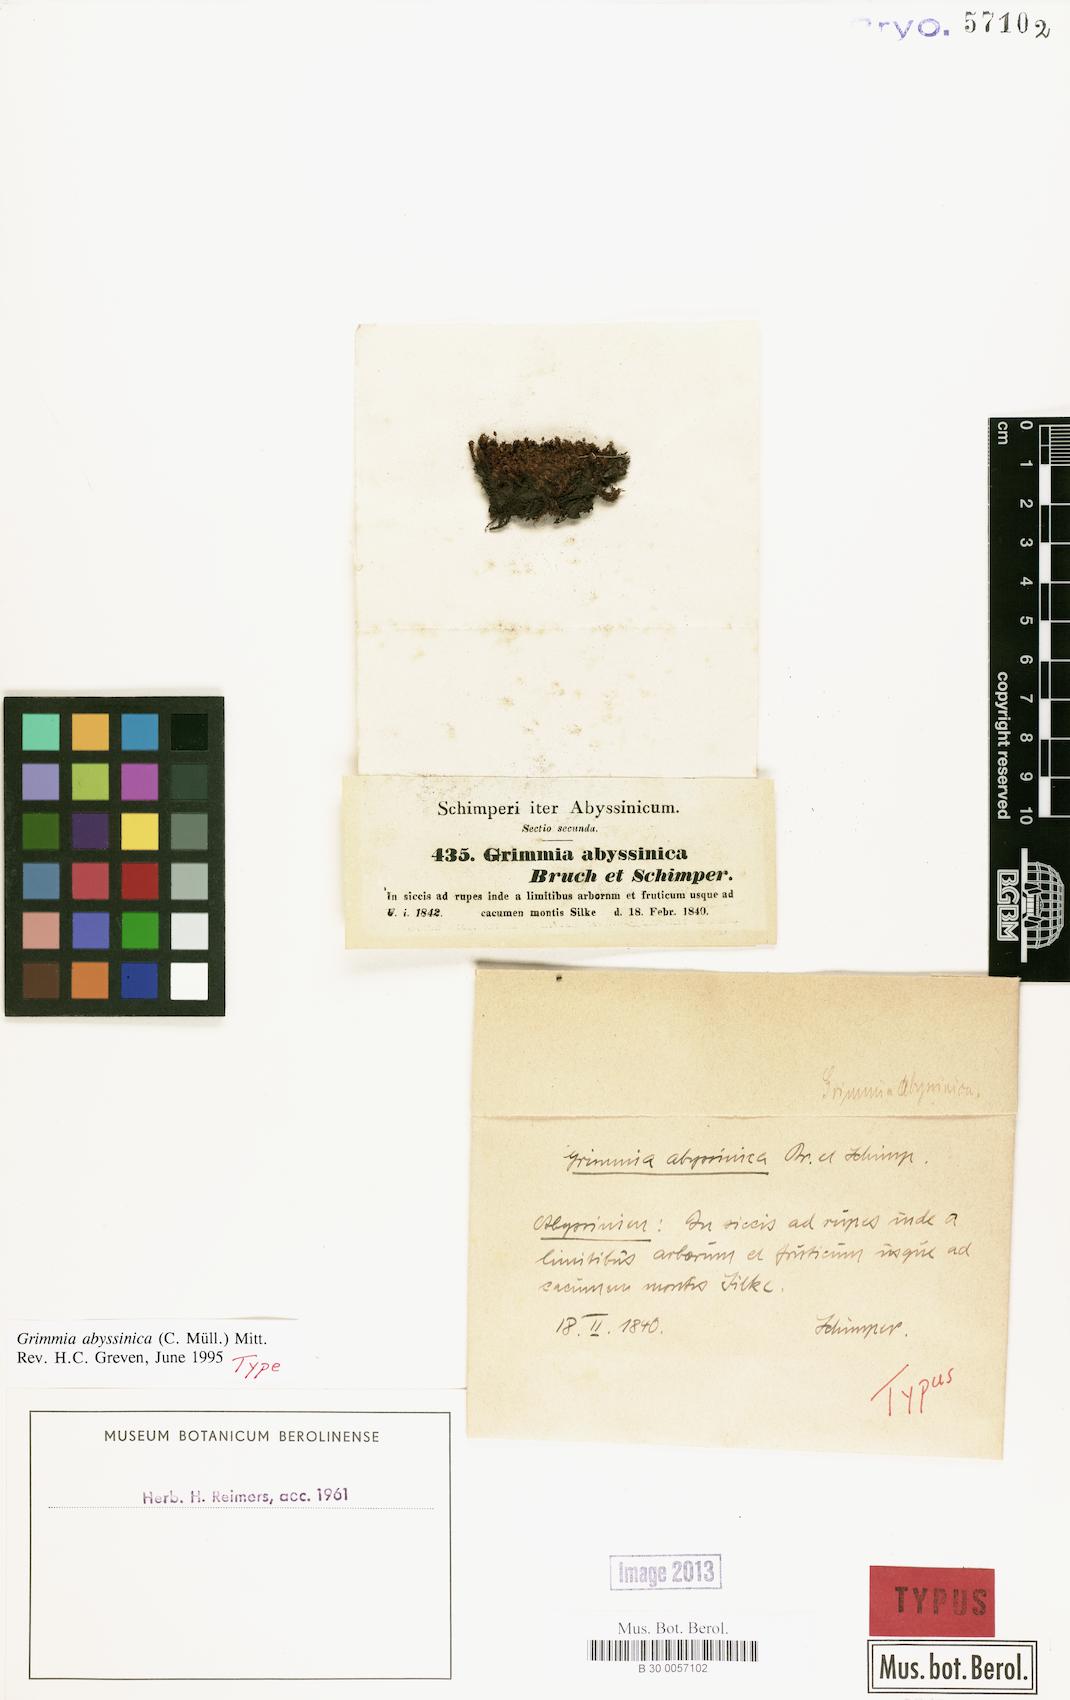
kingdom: Plantae
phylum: Bryophyta
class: Bryopsida
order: Grimmiales
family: Grimmiaceae
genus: Grimmia
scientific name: Grimmia abyssinica
